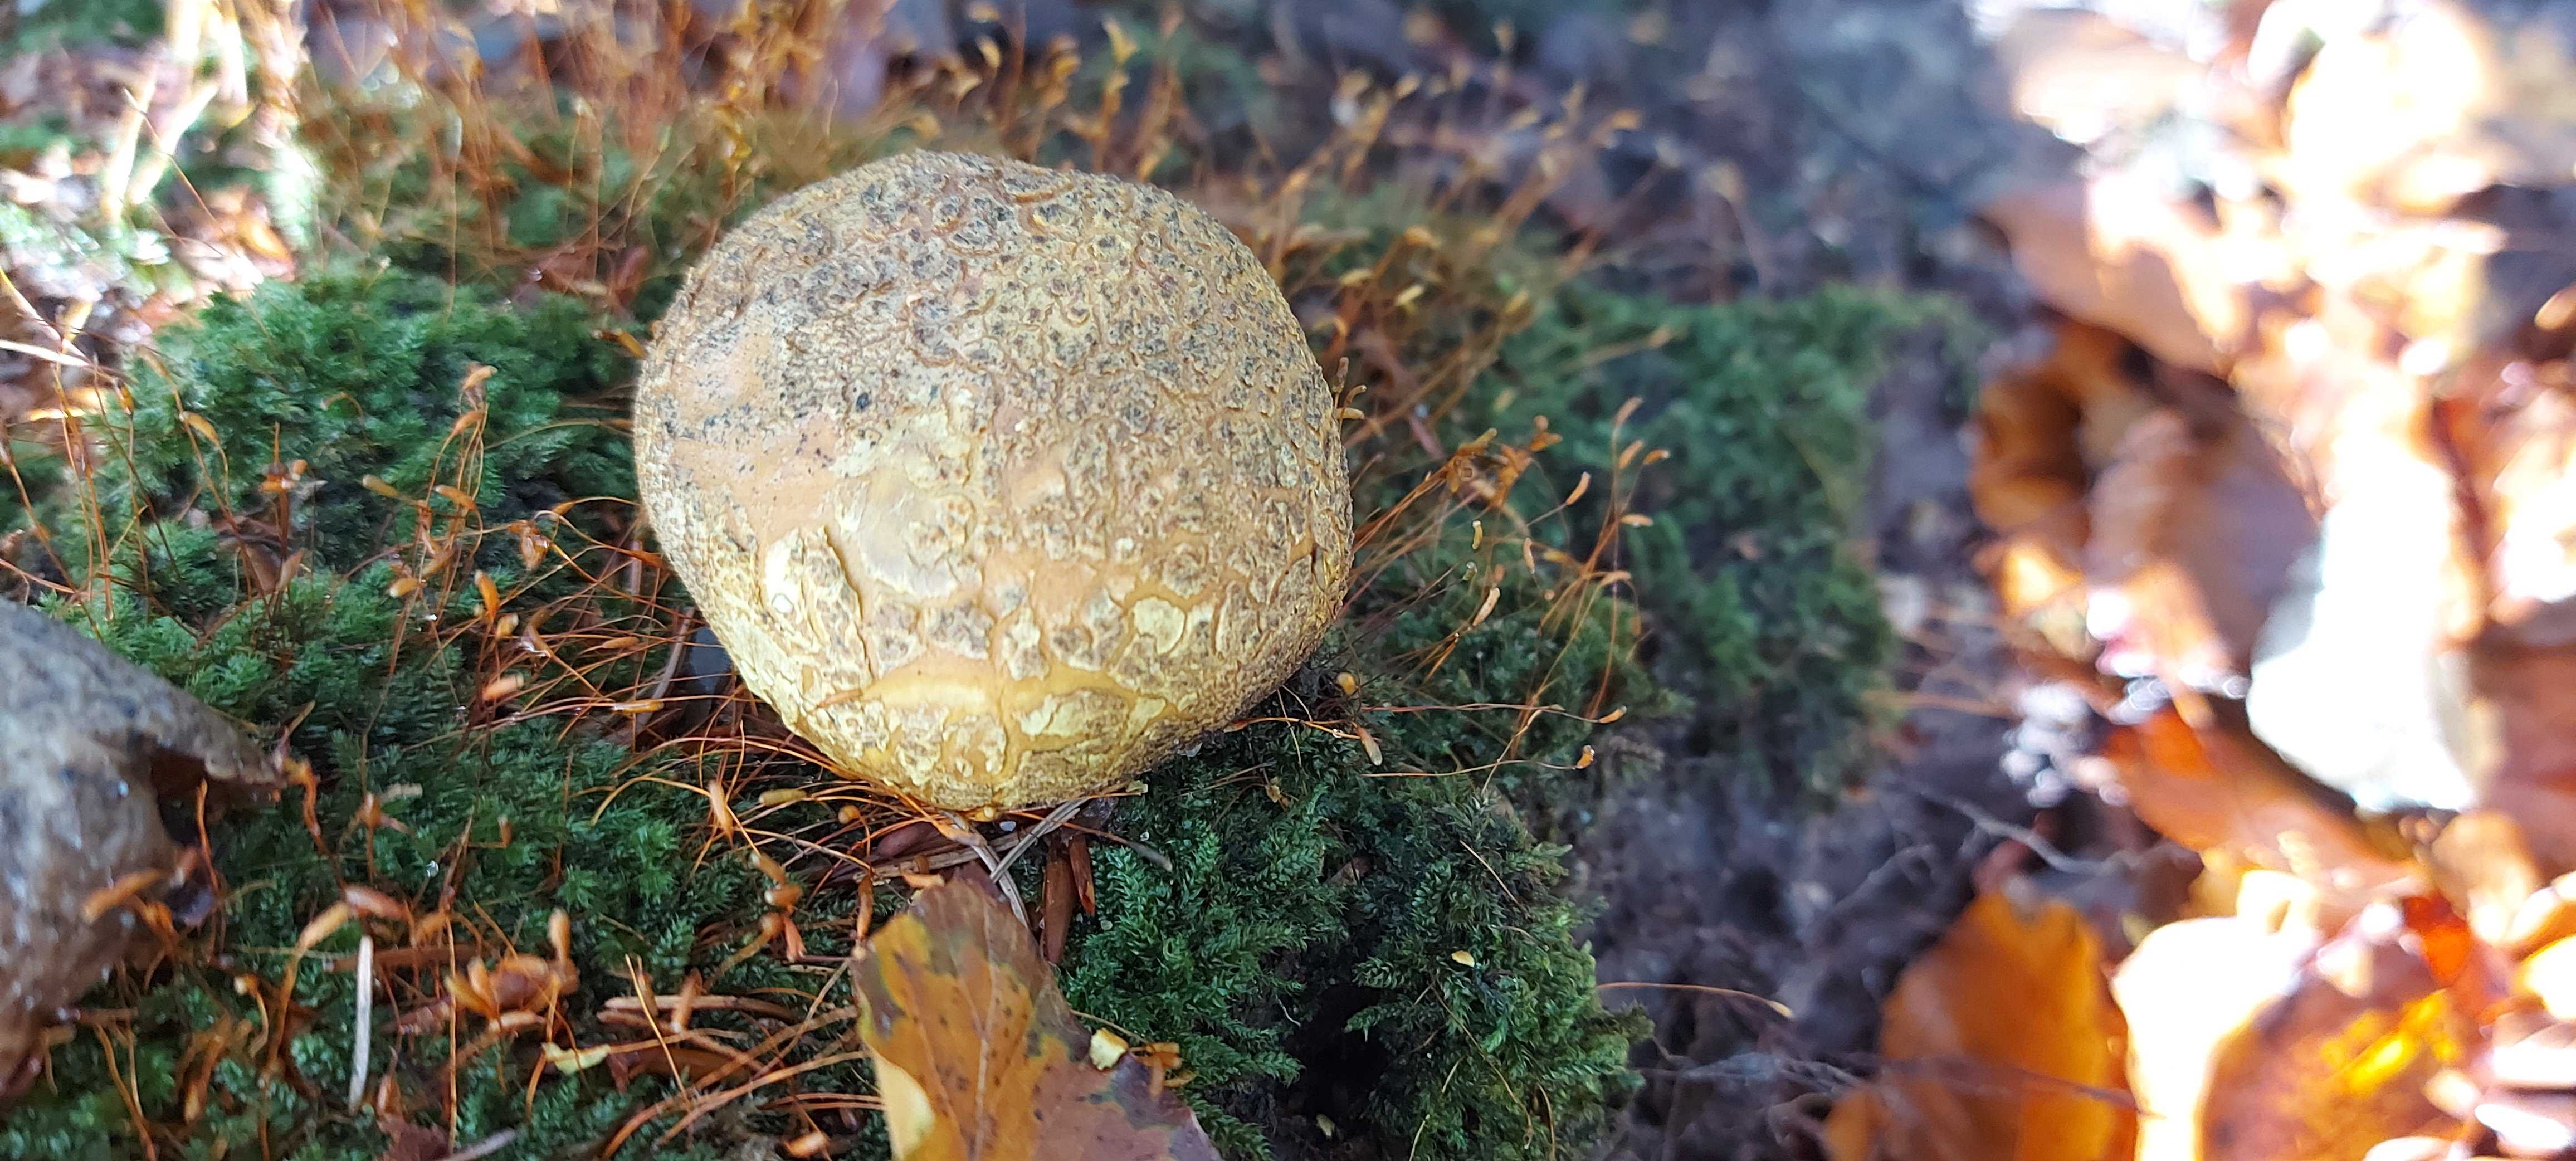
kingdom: Fungi
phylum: Basidiomycota
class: Agaricomycetes
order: Boletales
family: Sclerodermataceae
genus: Scleroderma
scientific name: Scleroderma citrinum
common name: almindelig bruskbold
